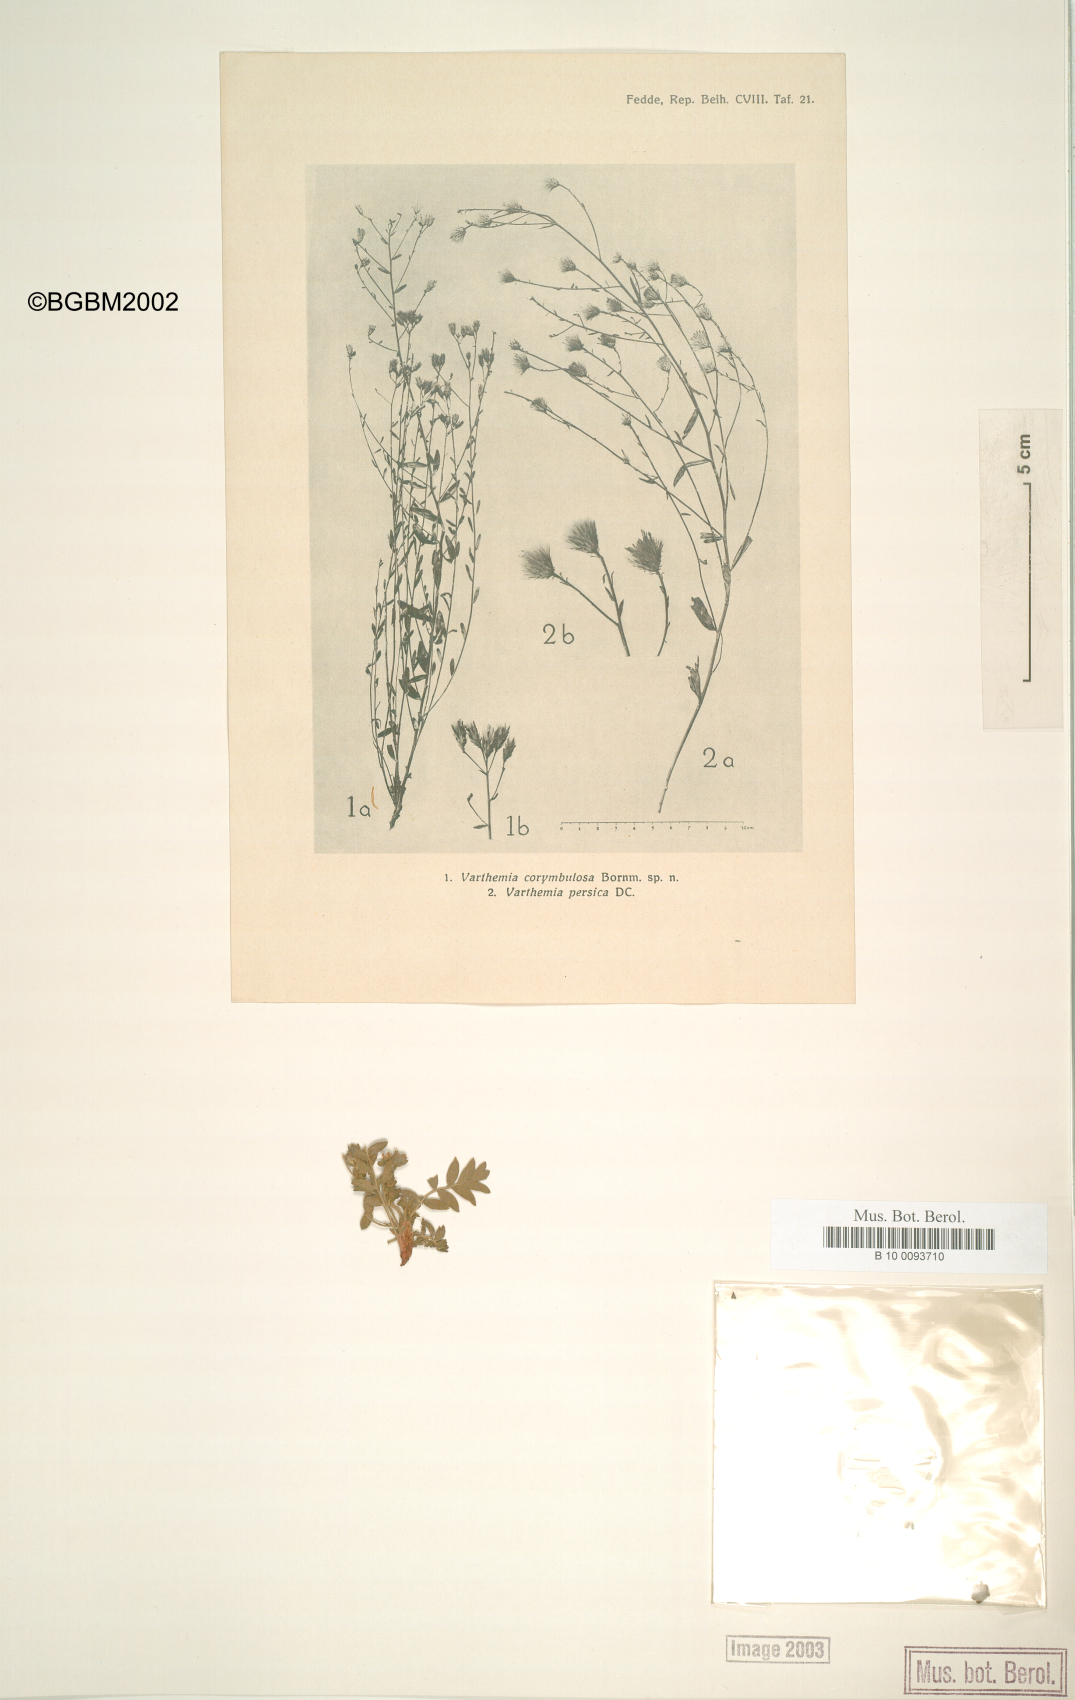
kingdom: Plantae
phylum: Tracheophyta
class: Magnoliopsida
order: Asterales
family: Asteraceae
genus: Galatella
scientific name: Galatella corymbulosa
